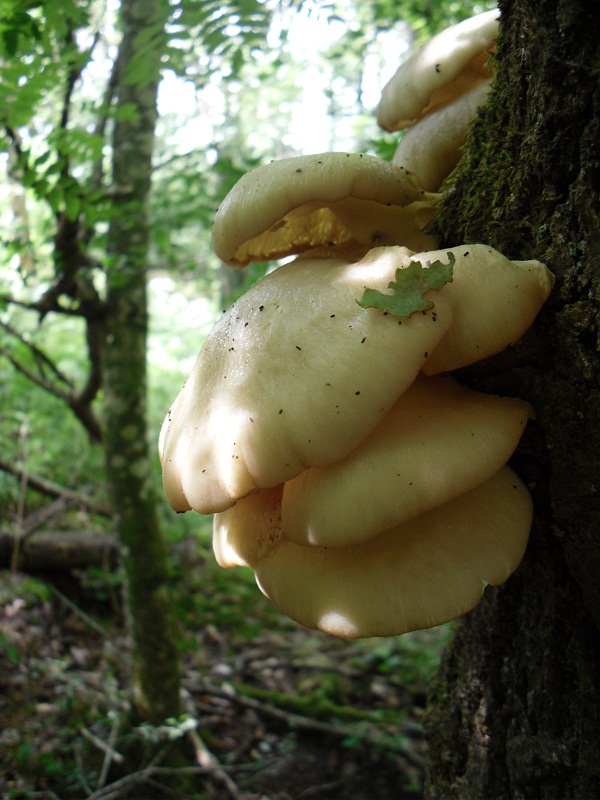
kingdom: Fungi
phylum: Basidiomycota
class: Agaricomycetes
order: Agaricales
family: Pleurotaceae
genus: Pleurotus
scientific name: Pleurotus pulmonarius
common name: sommer-østershat
